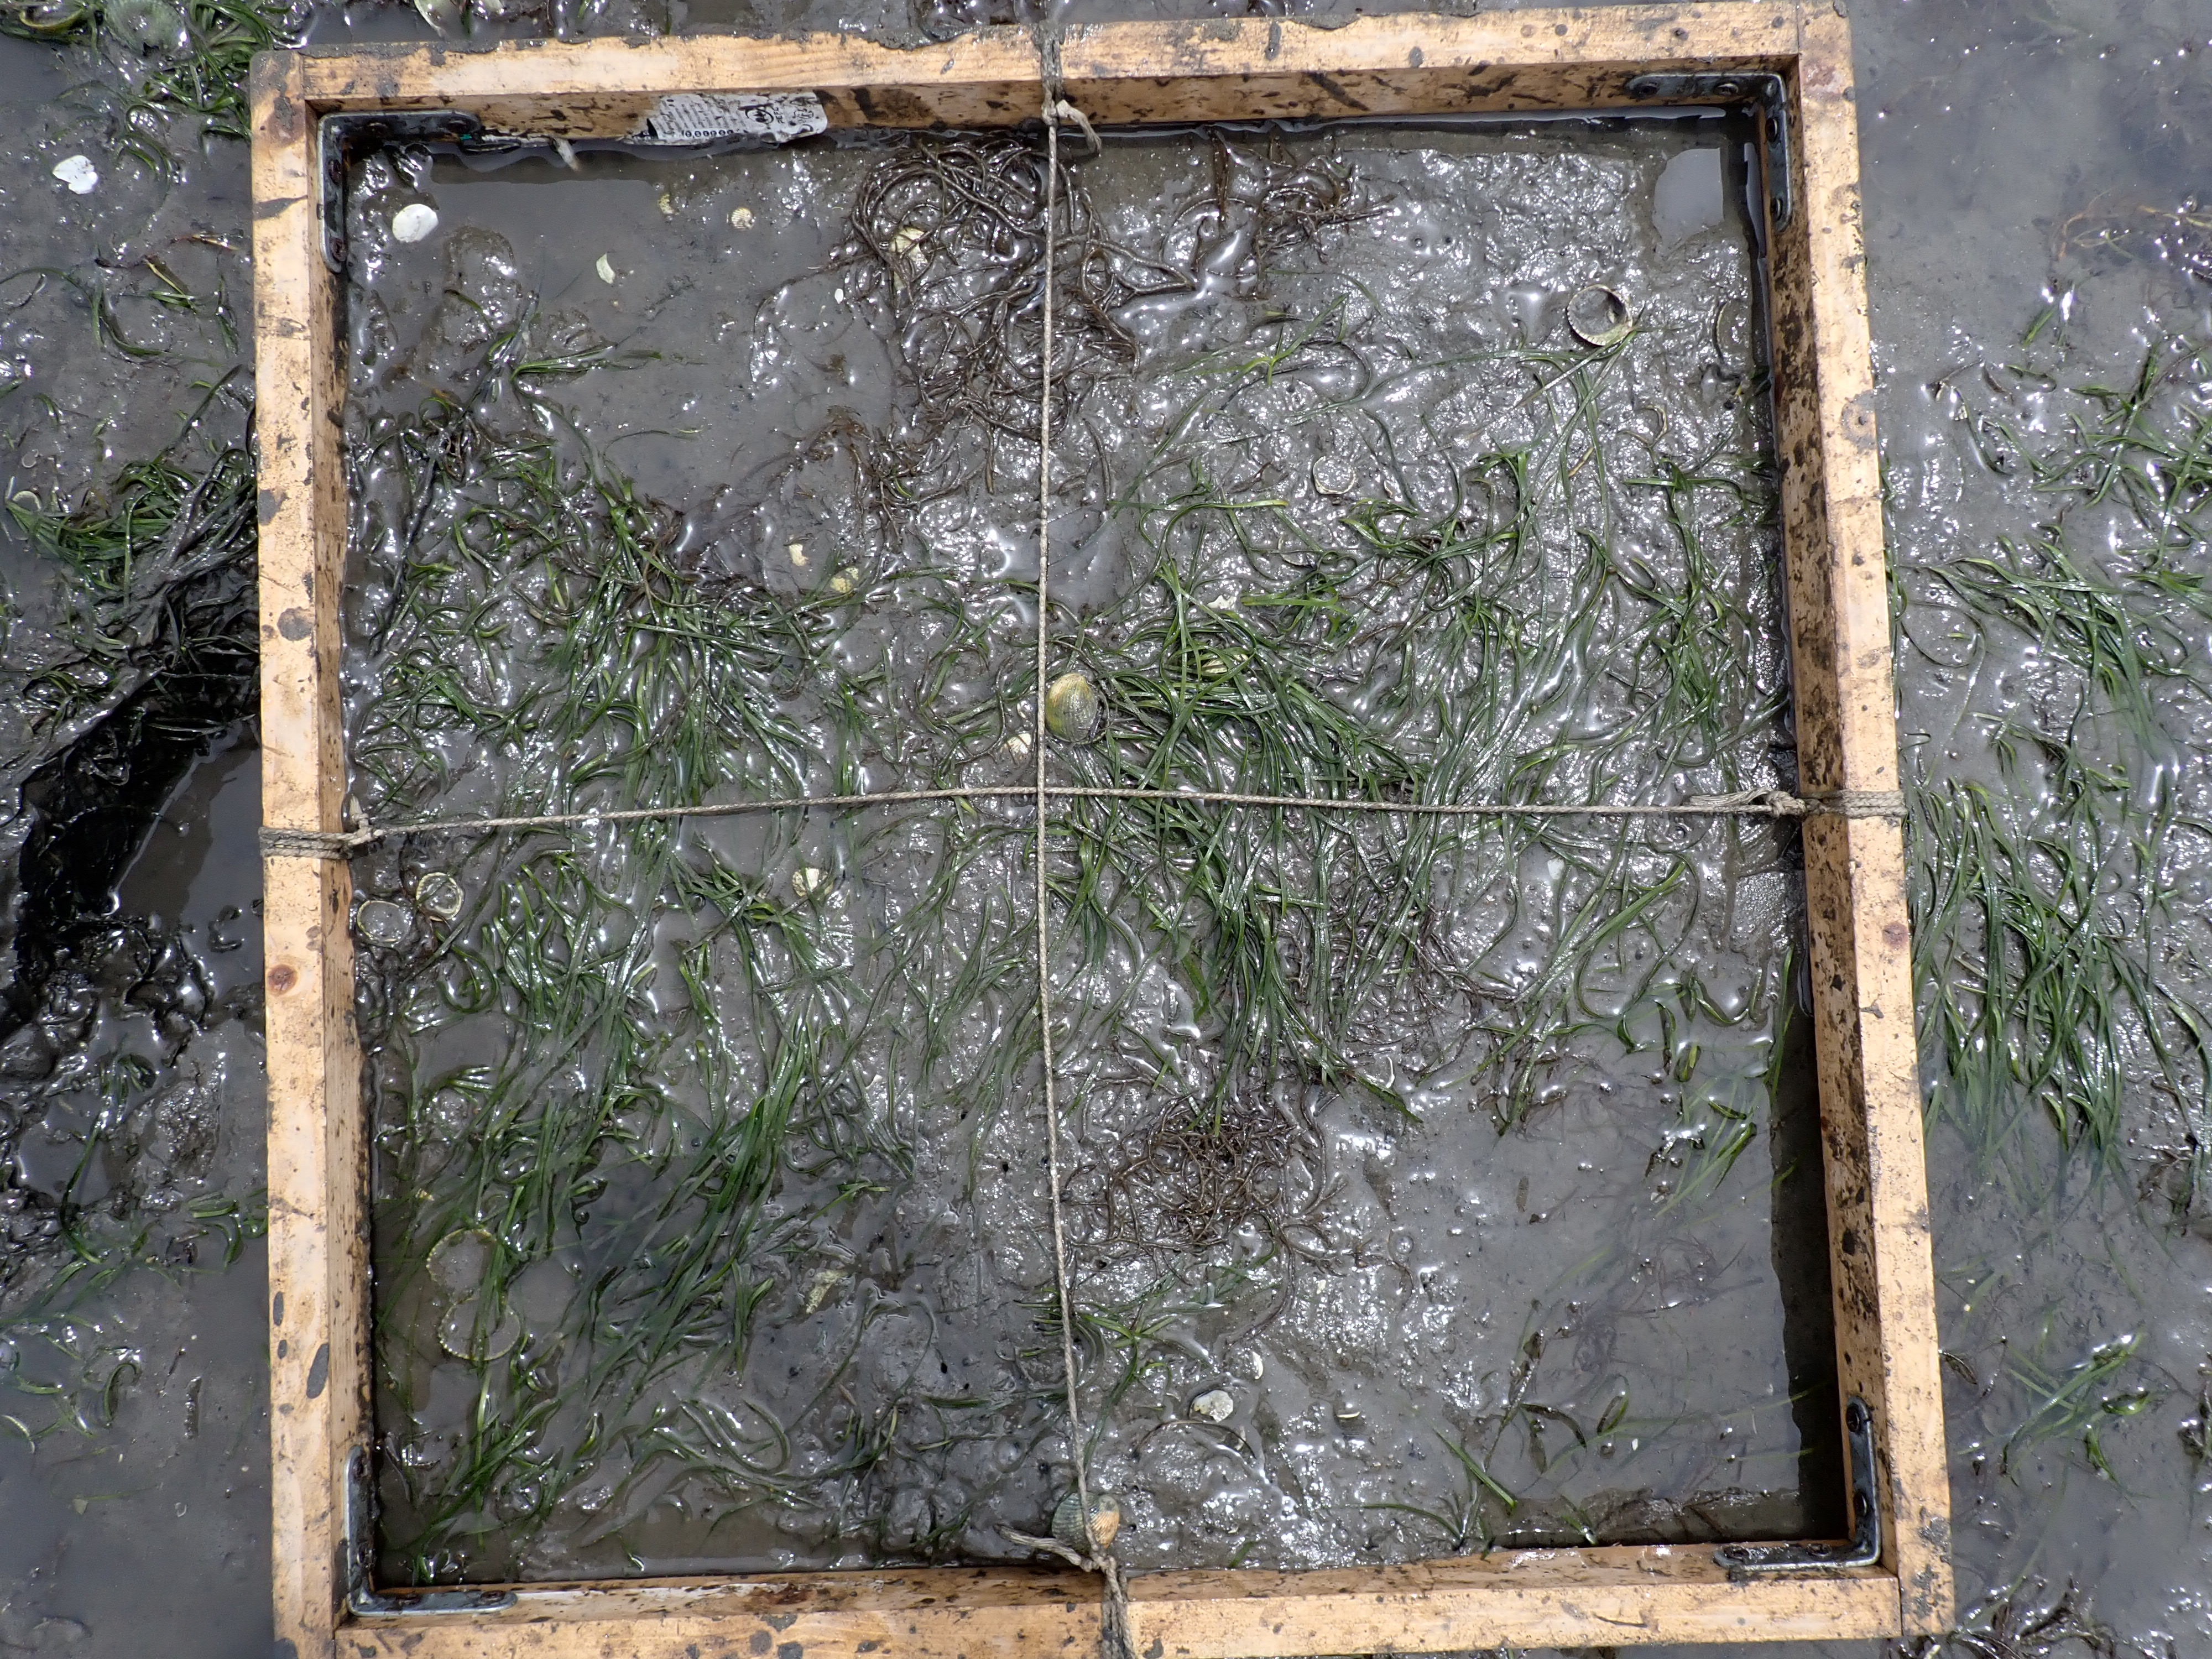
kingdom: Plantae
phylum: Rhodophyta
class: Florideophyceae
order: Gracilariales
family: Gracilariaceae
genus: Gracilaria
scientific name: Gracilaria vermiculophylla
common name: Algae
